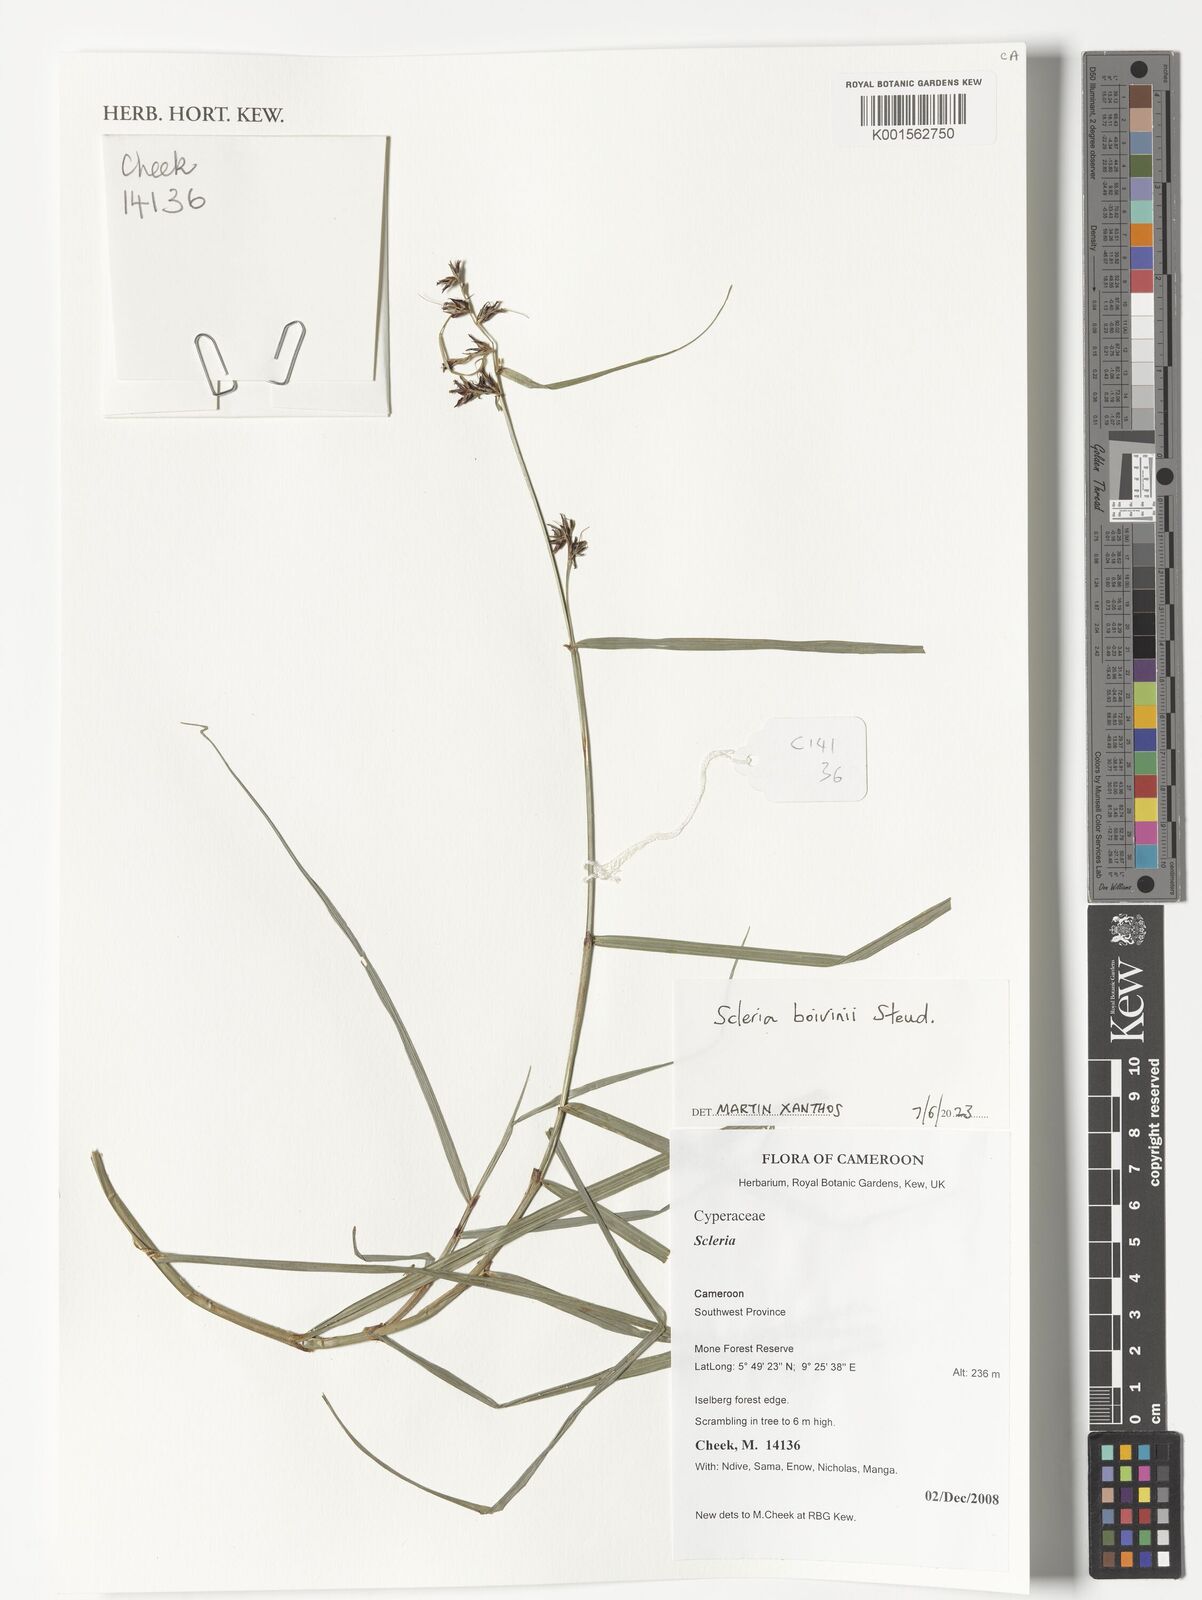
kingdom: Plantae
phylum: Tracheophyta
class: Liliopsida
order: Poales
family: Cyperaceae
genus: Scleria
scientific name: Scleria boivinii
